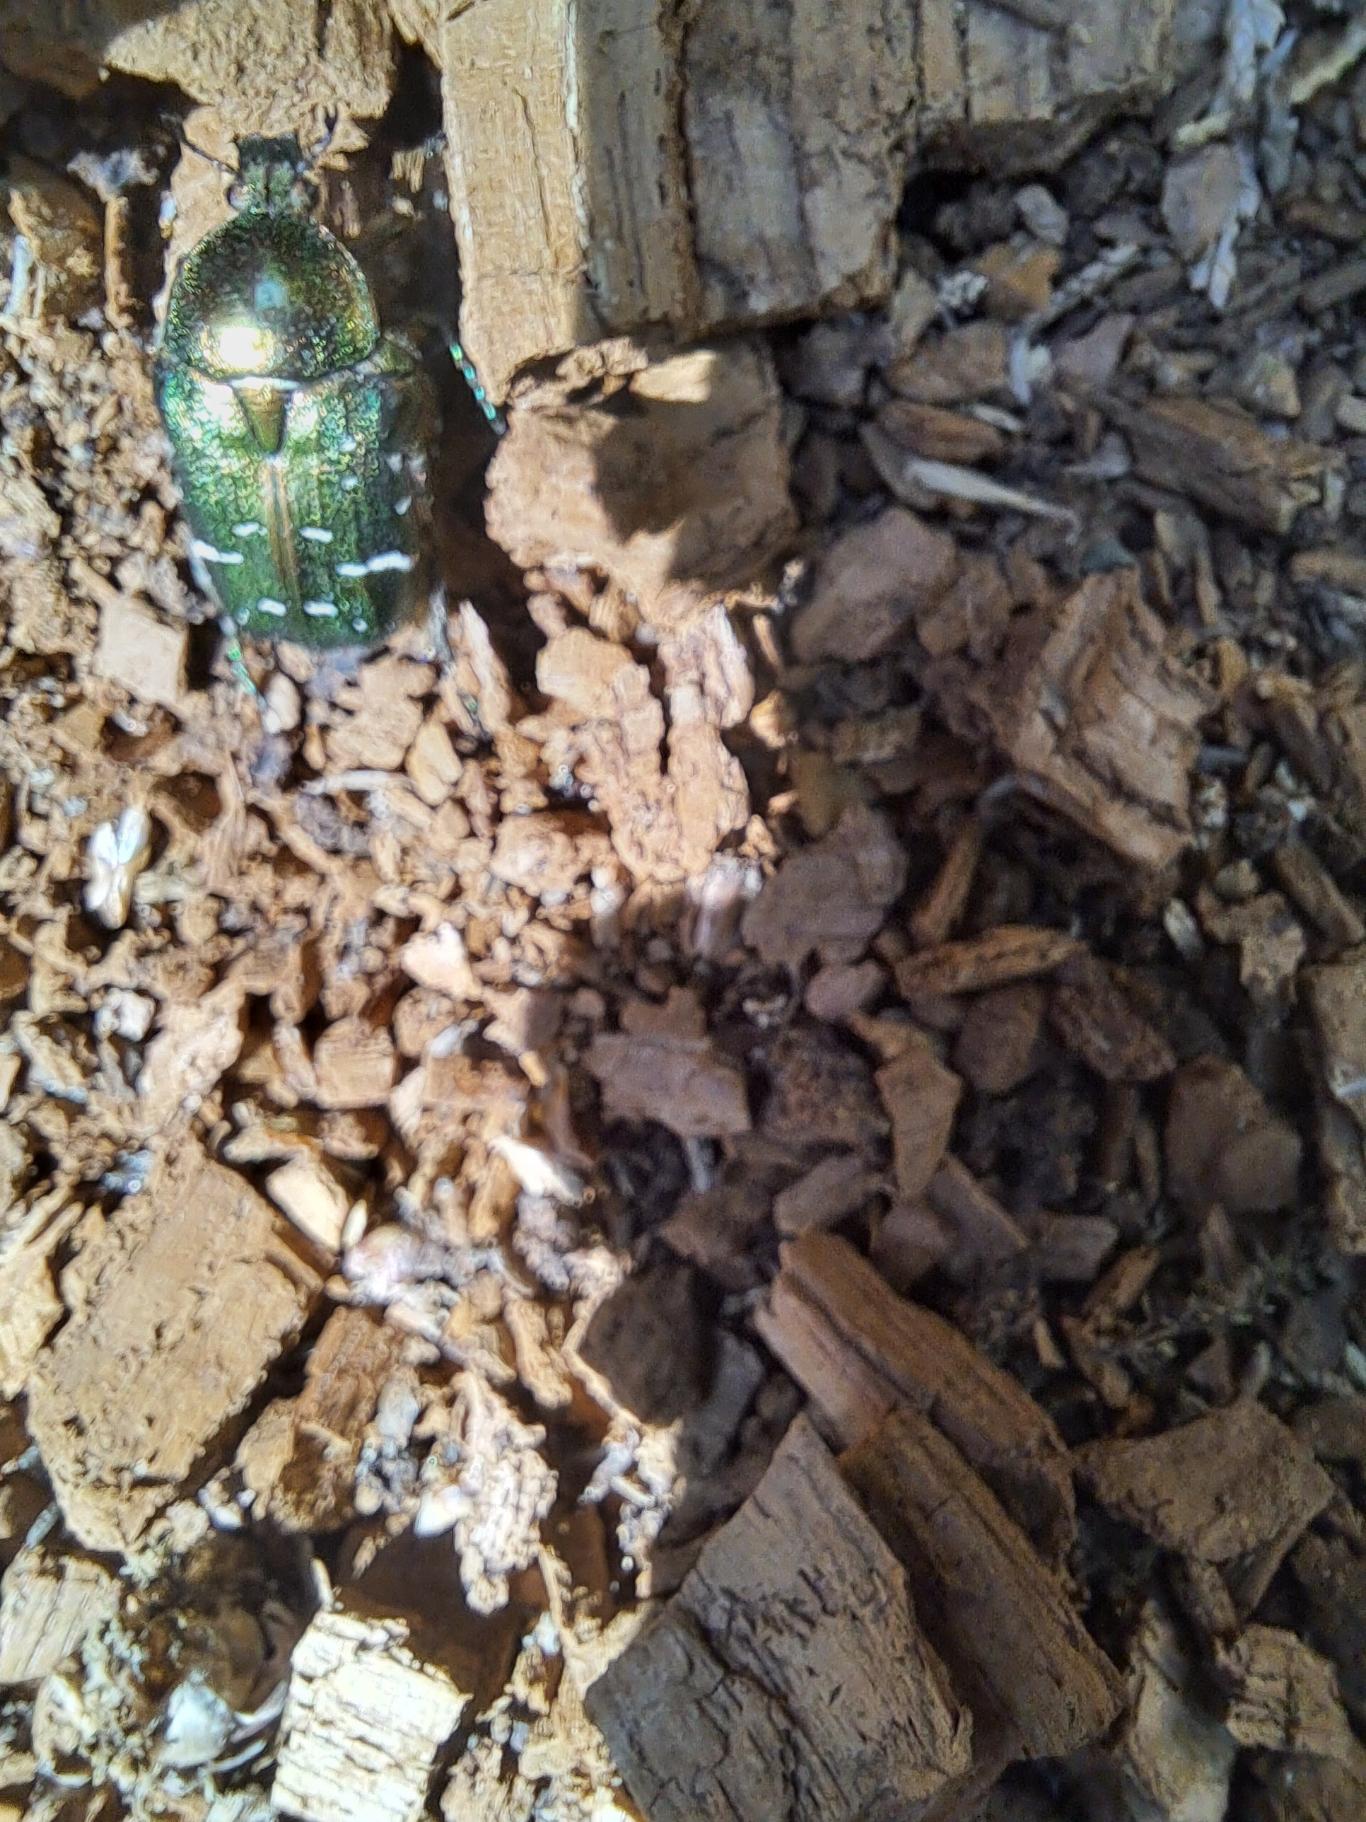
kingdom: Animalia
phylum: Arthropoda
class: Insecta
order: Coleoptera
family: Scarabaeidae
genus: Cetonia
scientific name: Cetonia aurata
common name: Grøn guldbasse
